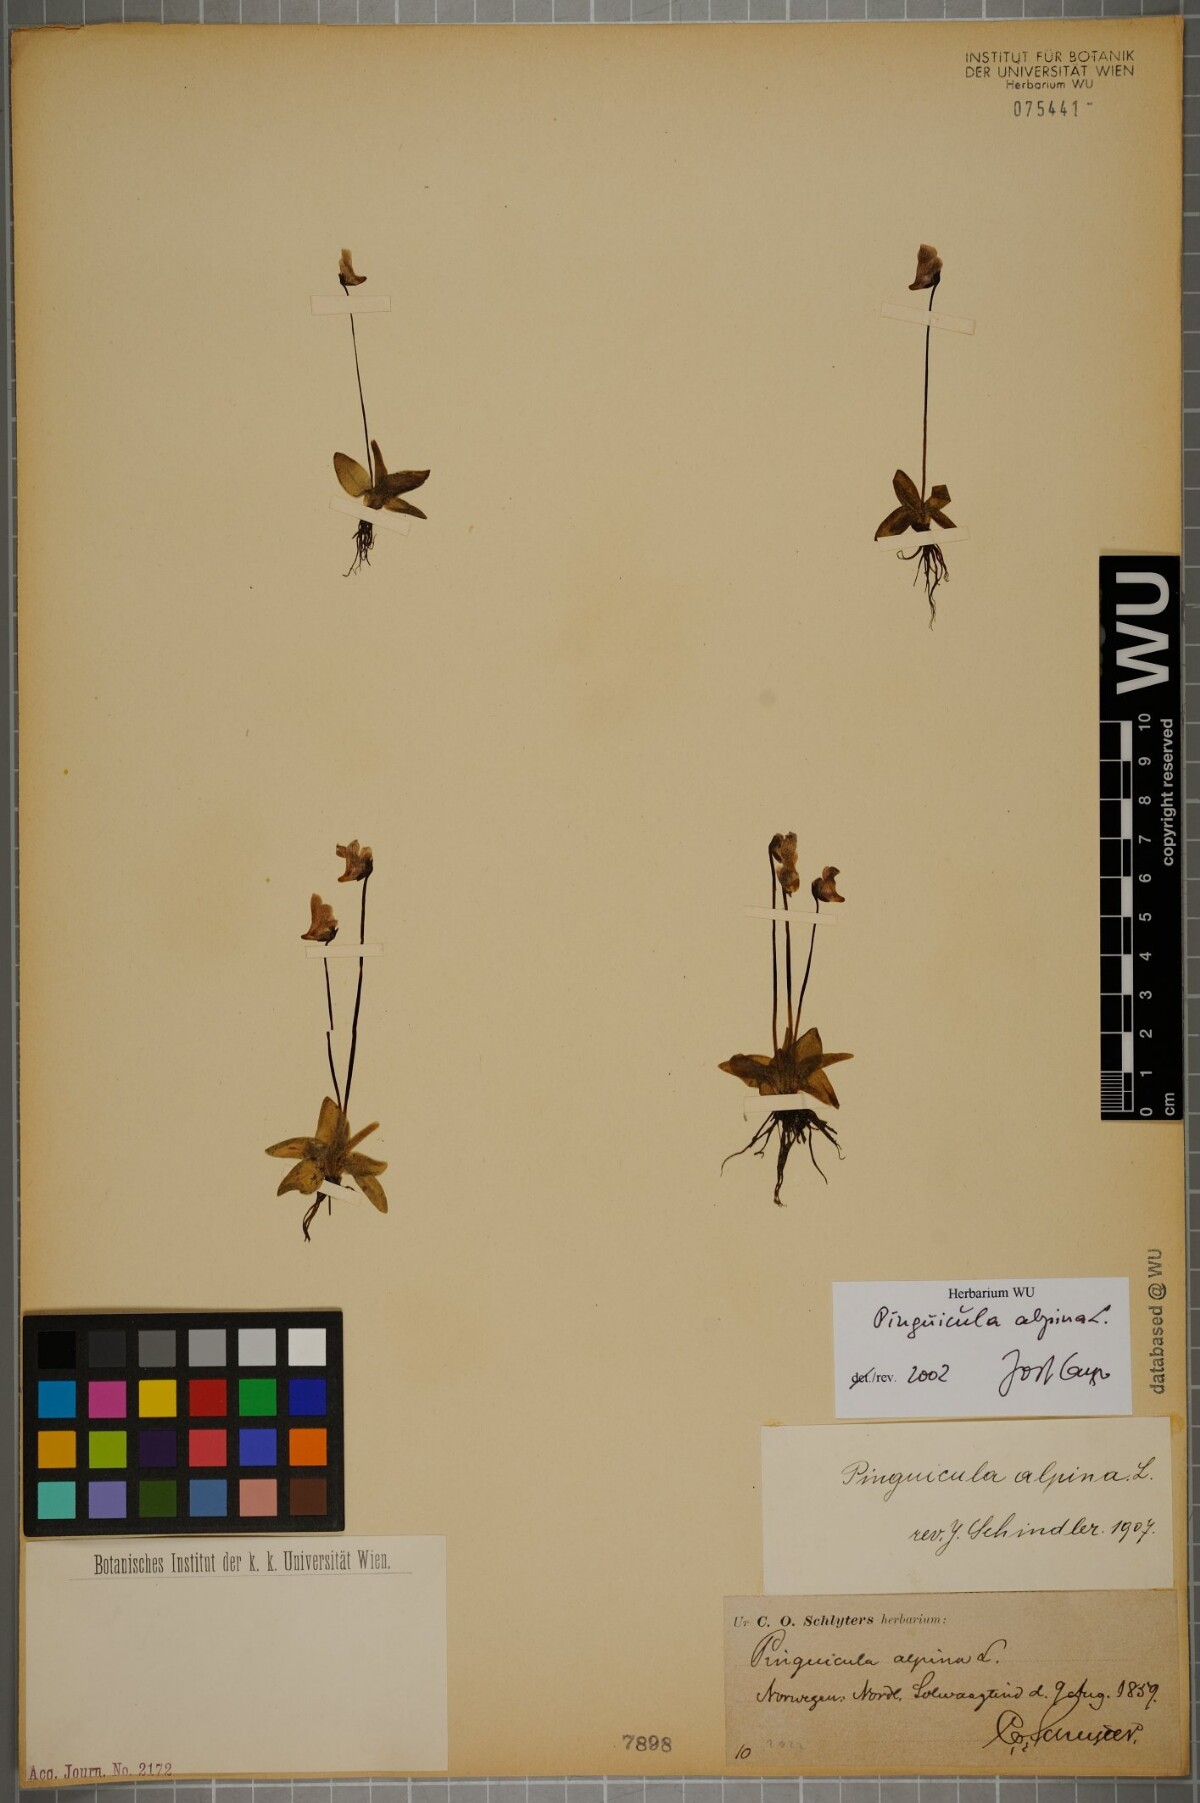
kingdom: Plantae
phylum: Tracheophyta
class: Magnoliopsida
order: Lamiales
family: Lentibulariaceae
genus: Pinguicula
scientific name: Pinguicula alpina
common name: Alpine butterwort
